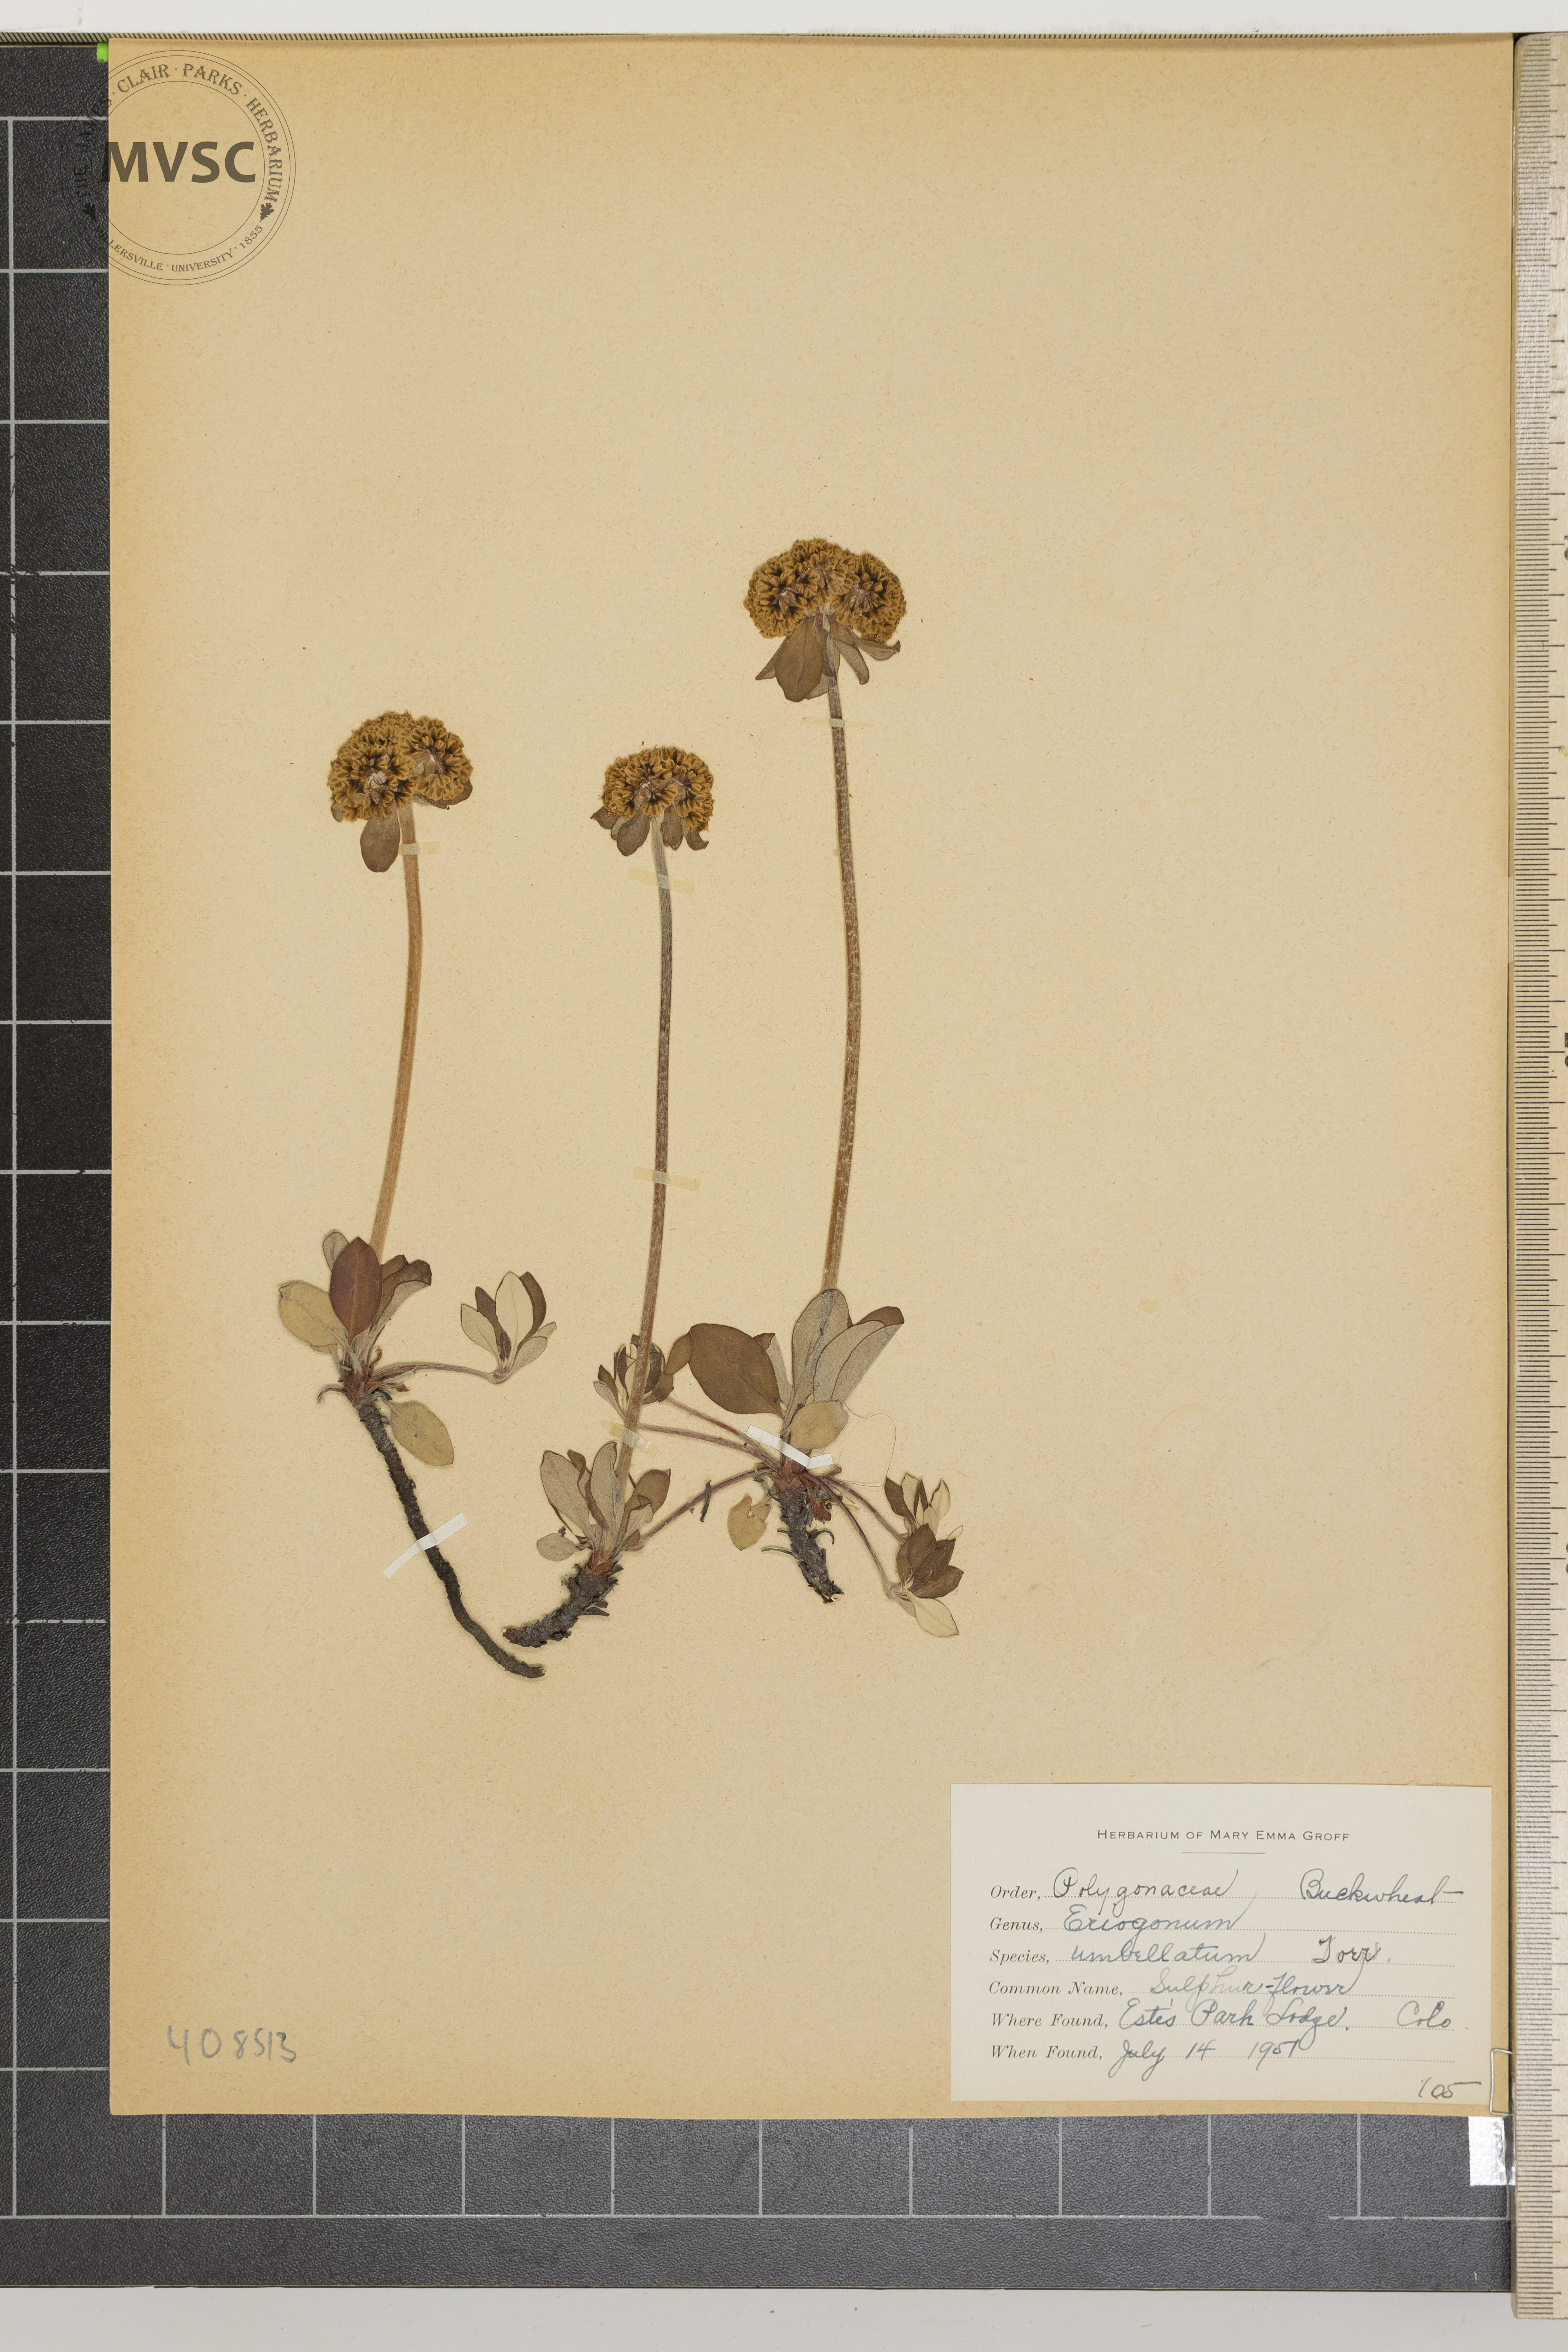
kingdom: Plantae
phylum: Tracheophyta
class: Magnoliopsida
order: Caryophyllales
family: Polygonaceae
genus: Eriogonum
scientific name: Eriogonum umbellatum
